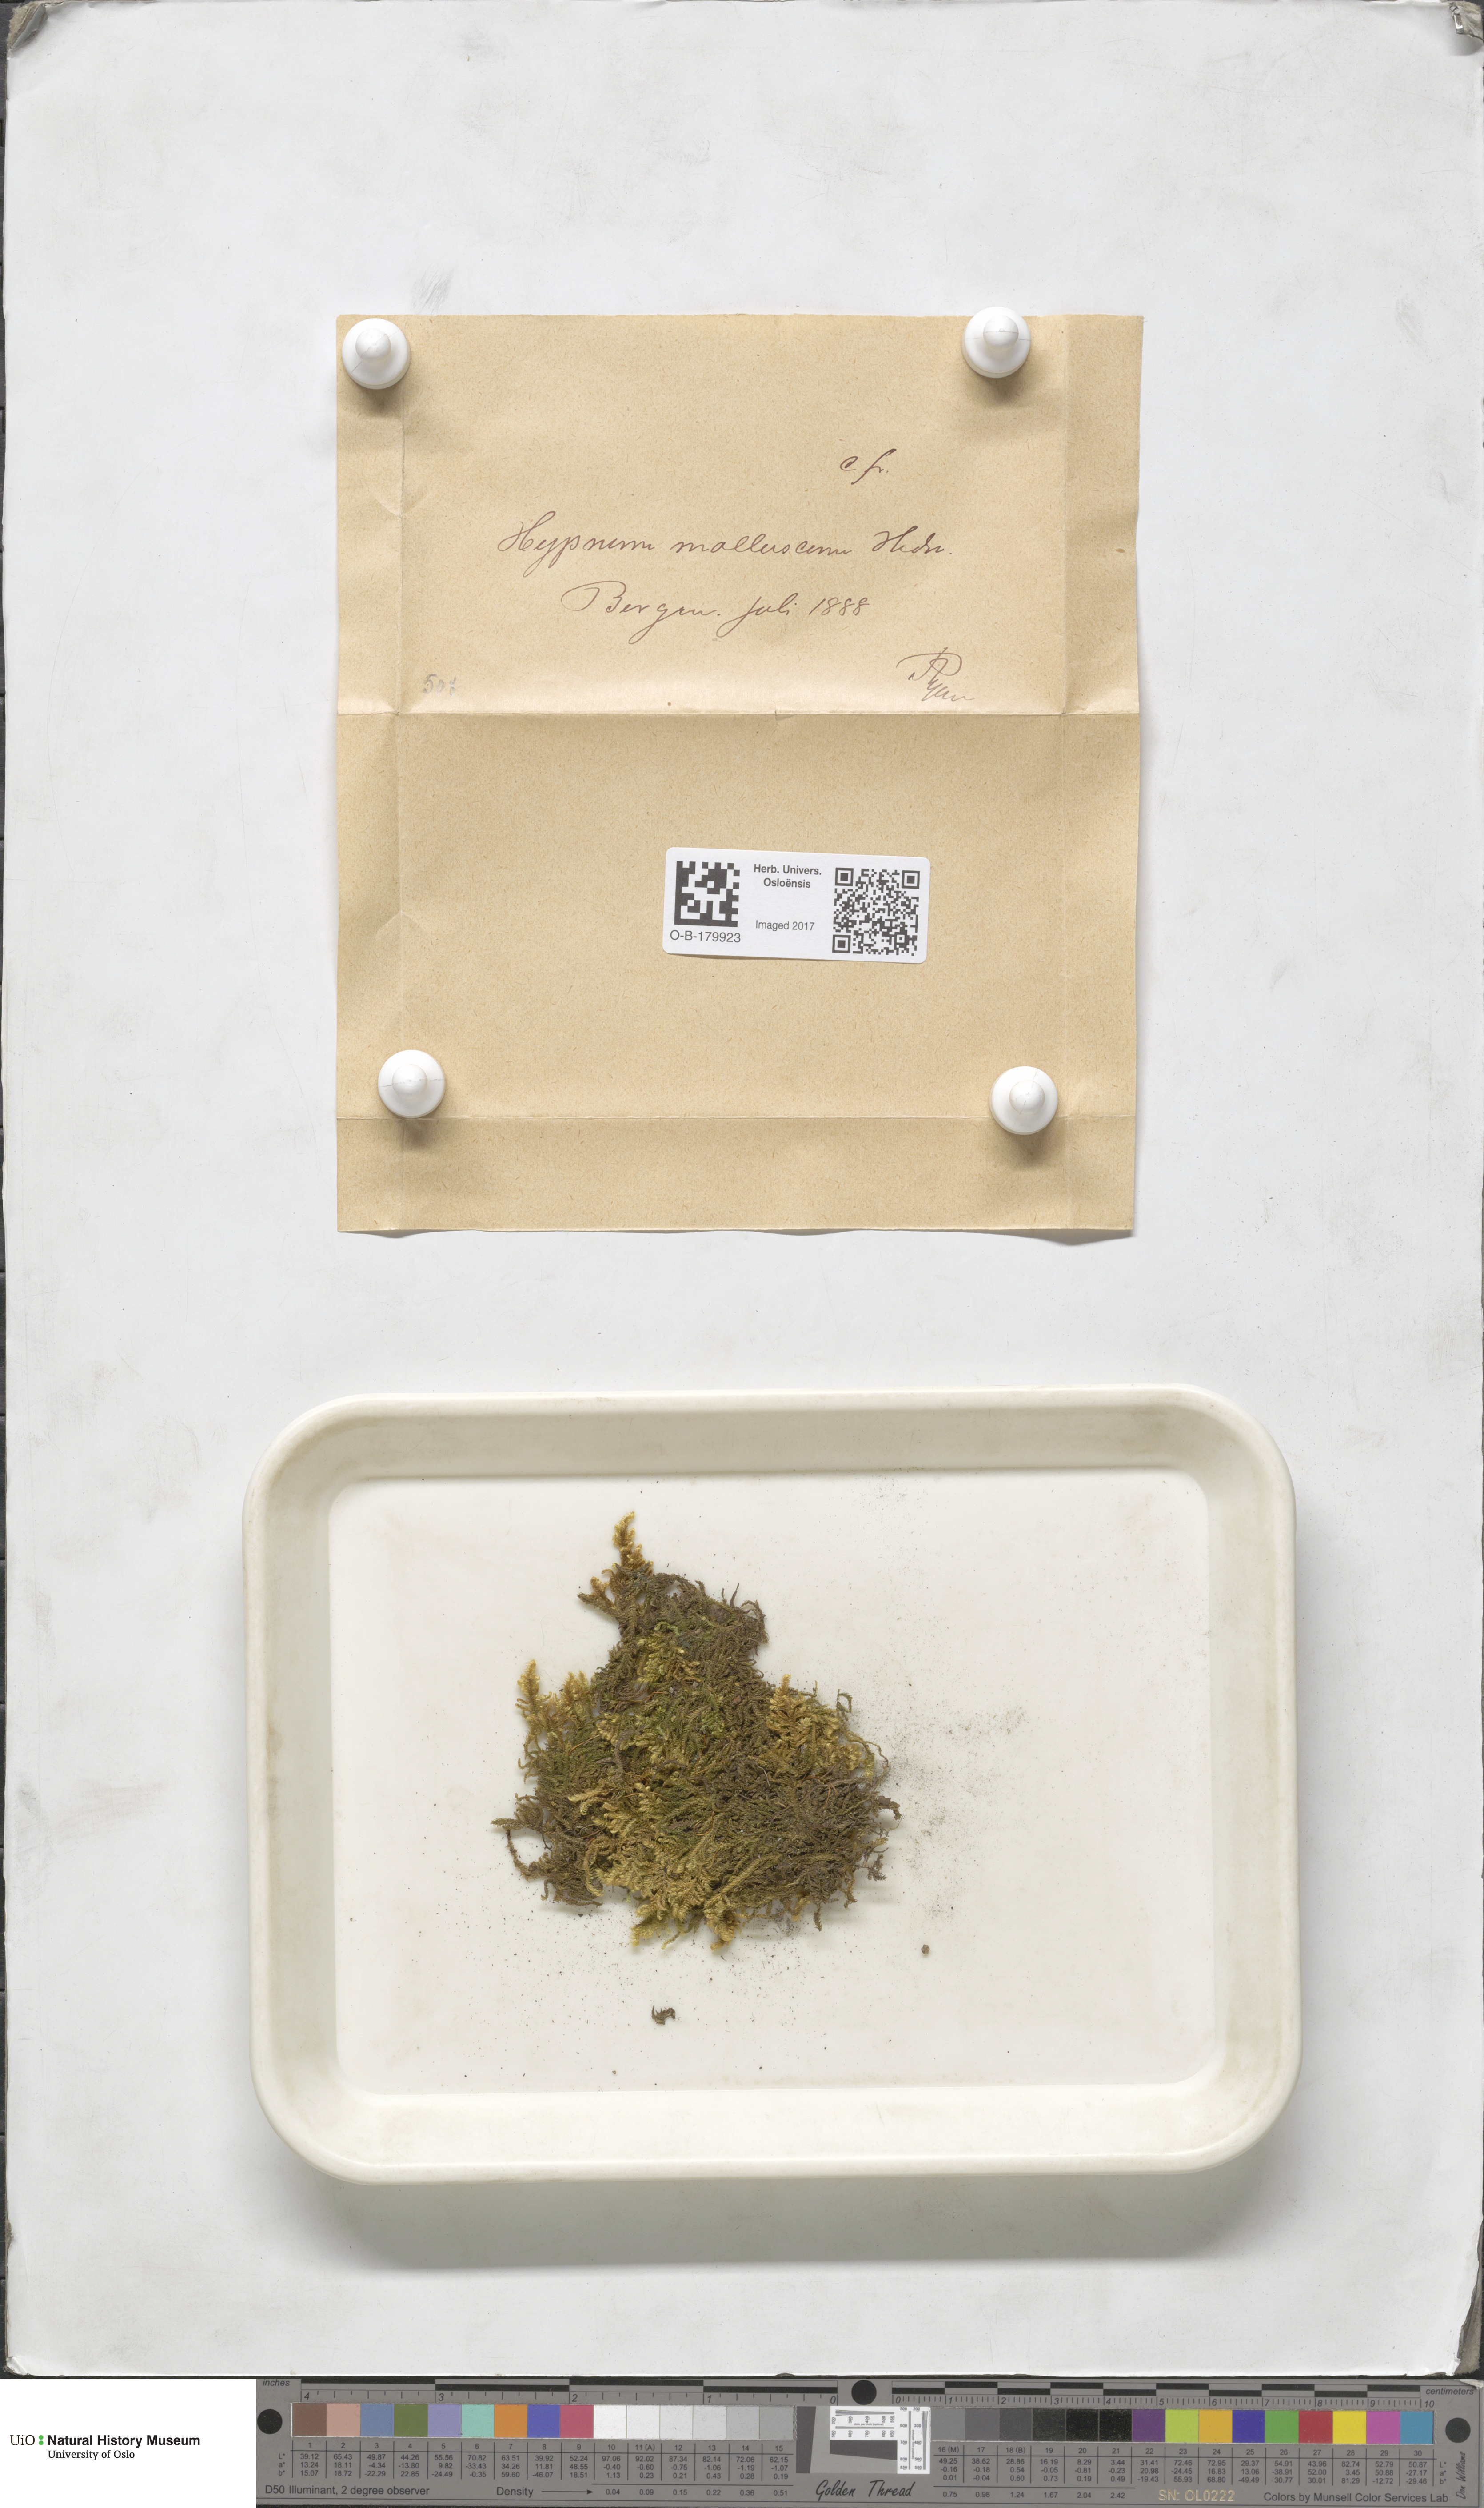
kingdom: Plantae
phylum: Bryophyta
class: Bryopsida
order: Hypnales
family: Myuriaceae
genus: Ctenidium
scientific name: Ctenidium molluscum
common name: Chalk comb-moss
